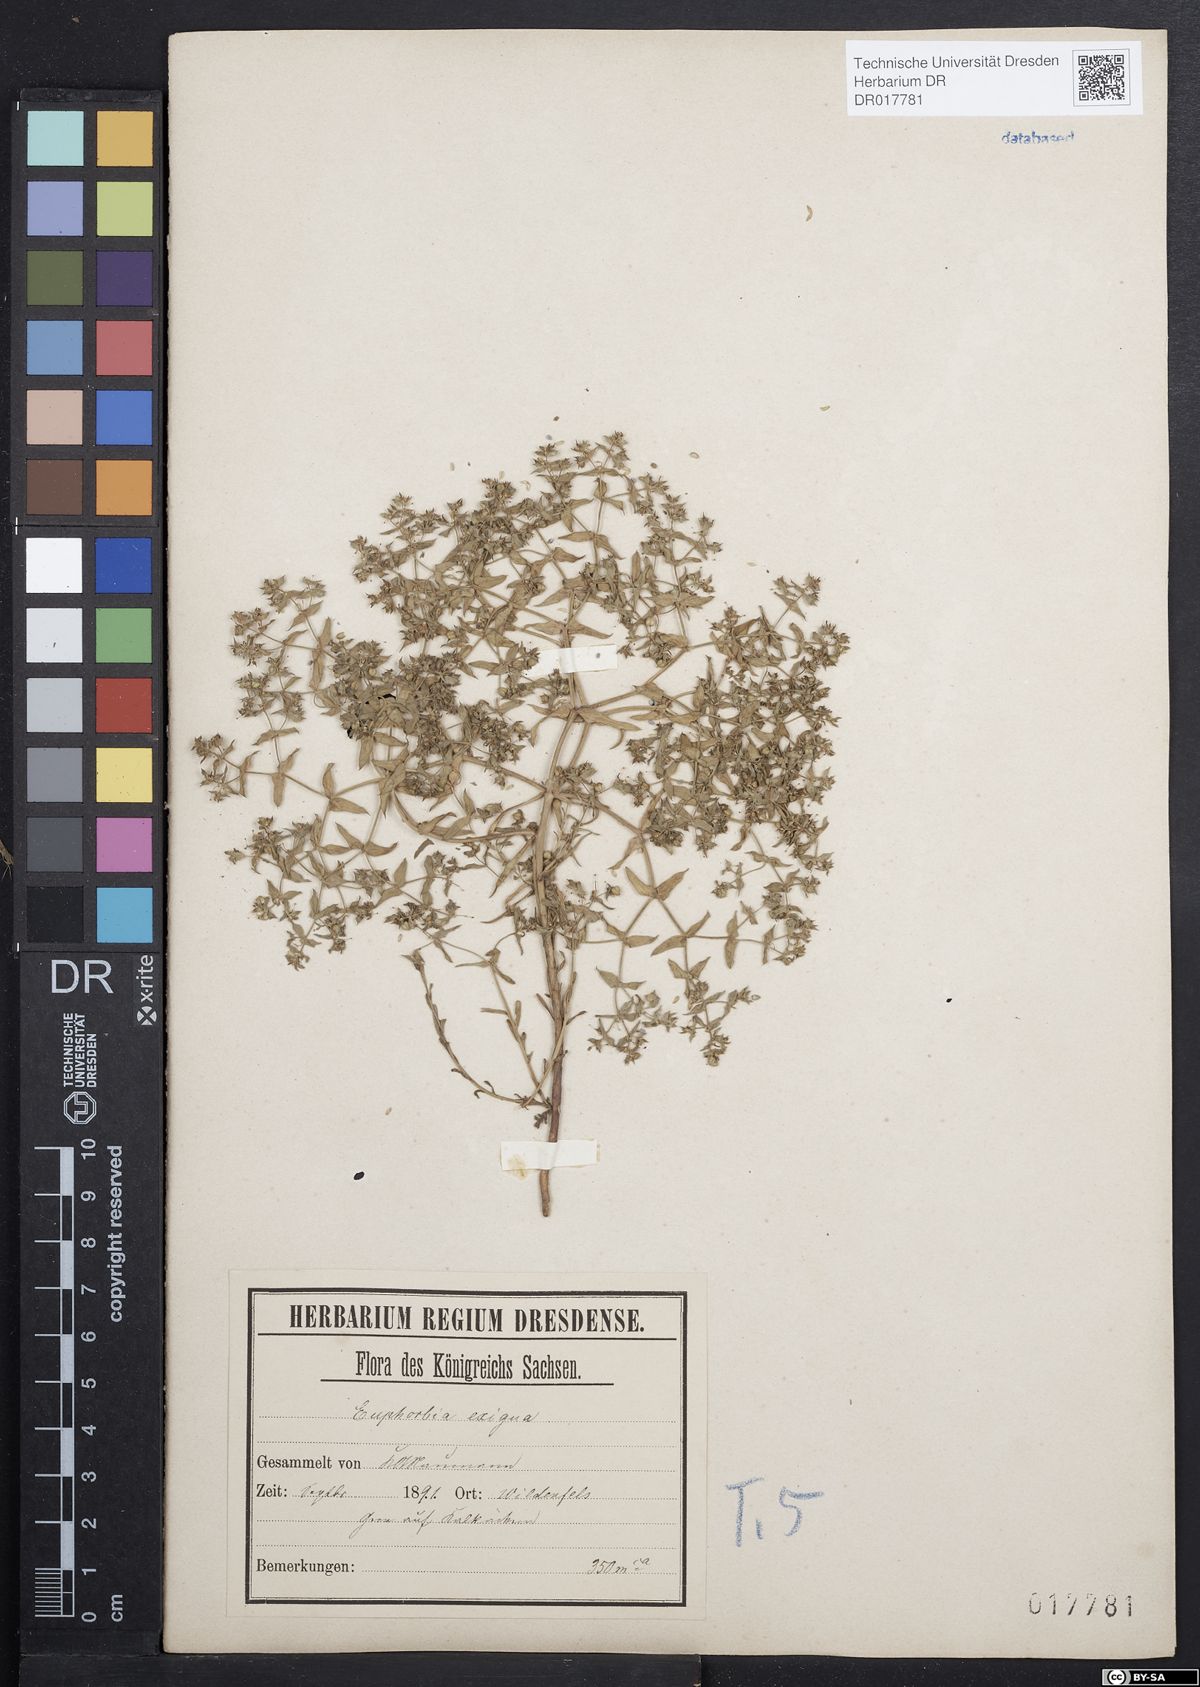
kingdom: Plantae
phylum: Tracheophyta
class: Magnoliopsida
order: Malpighiales
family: Euphorbiaceae
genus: Euphorbia
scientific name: Euphorbia exigua
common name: Dwarf spurge
